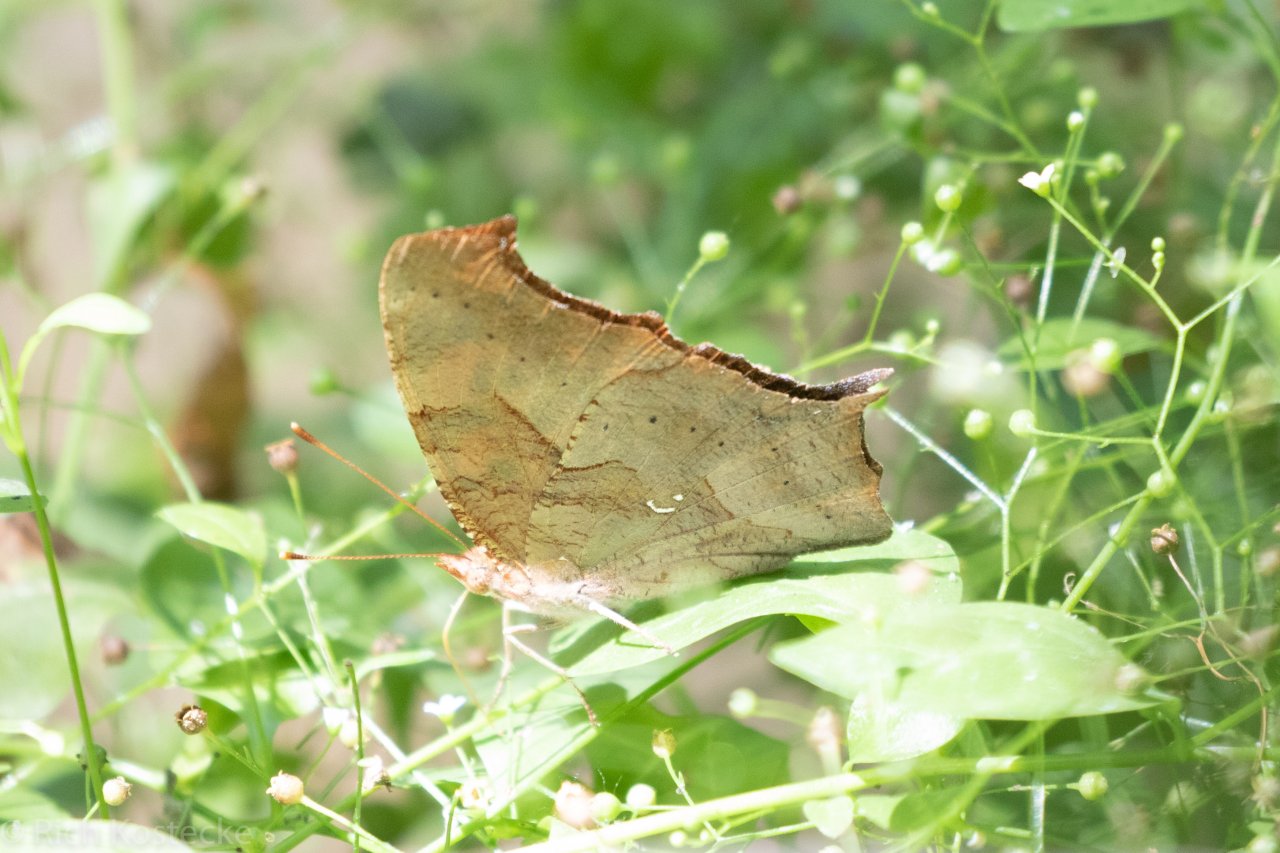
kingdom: Animalia
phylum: Arthropoda
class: Insecta
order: Lepidoptera
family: Nymphalidae
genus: Polygonia
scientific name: Polygonia interrogationis
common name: Question Mark
